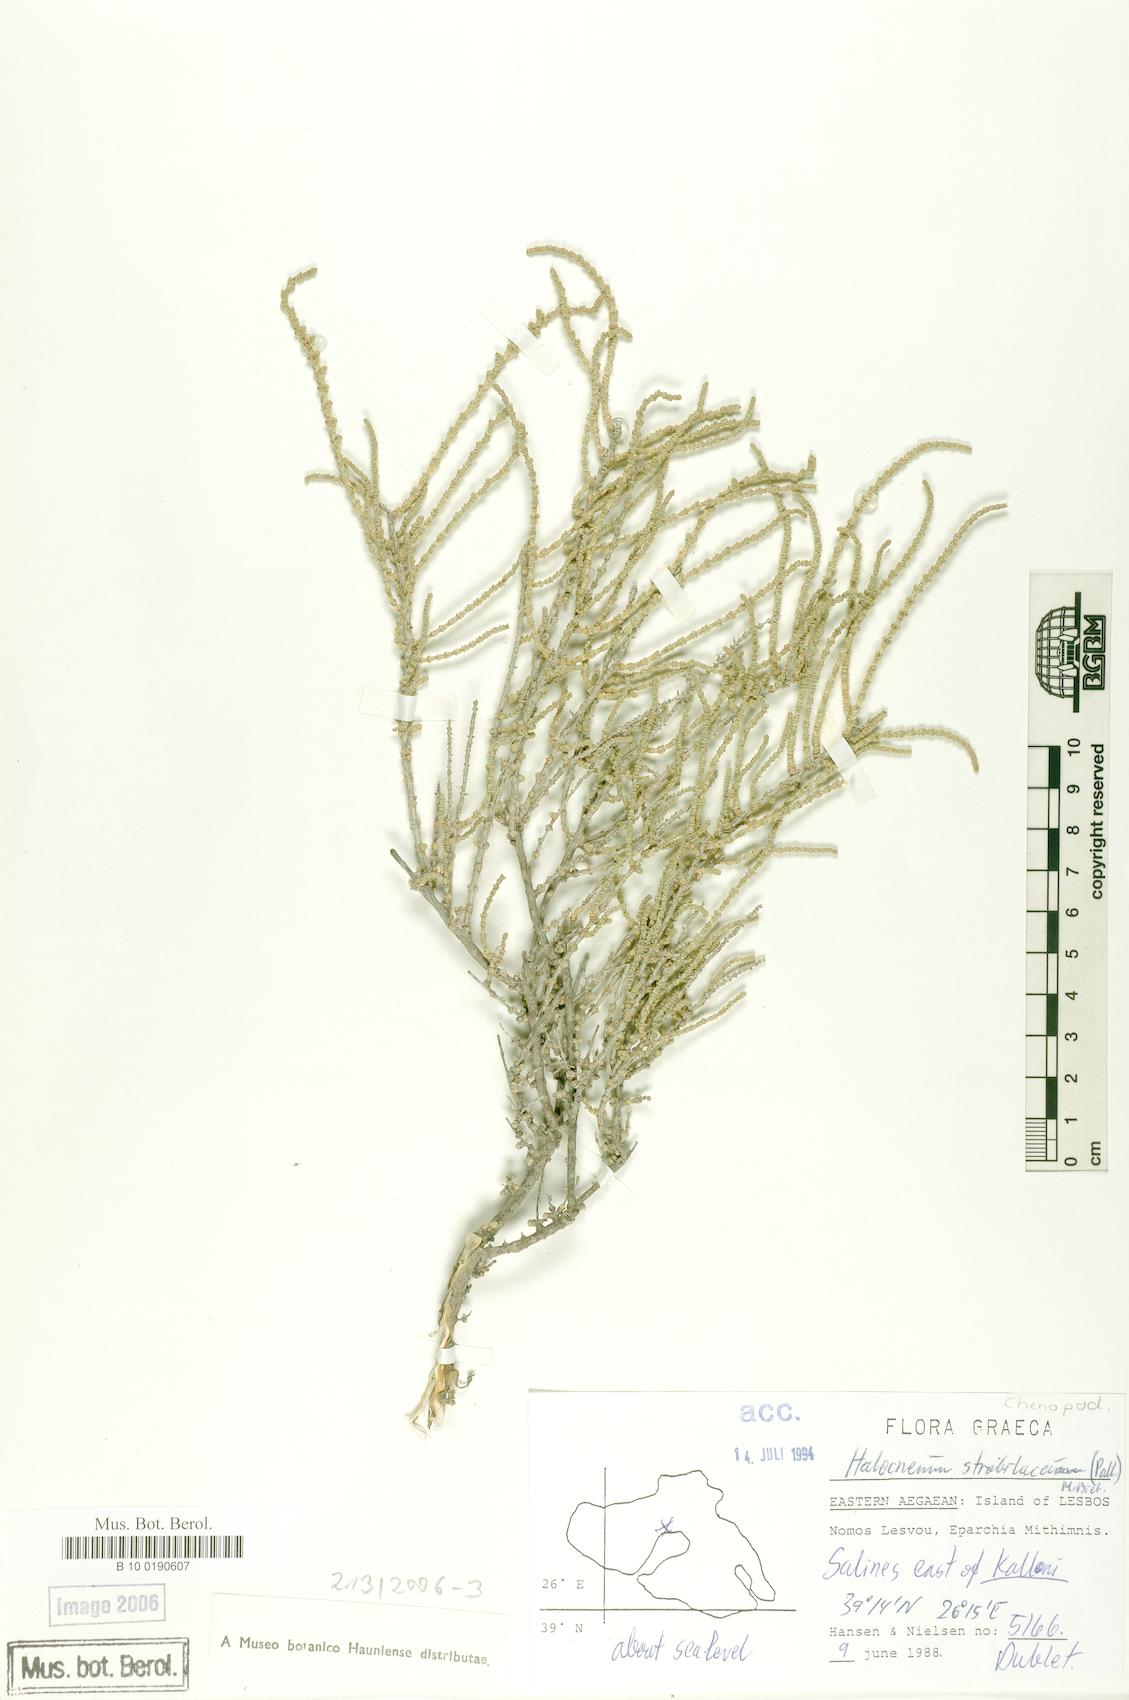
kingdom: Plantae
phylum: Tracheophyta
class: Magnoliopsida
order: Caryophyllales
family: Amaranthaceae
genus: Halocnemum
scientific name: Halocnemum strobilaceum
